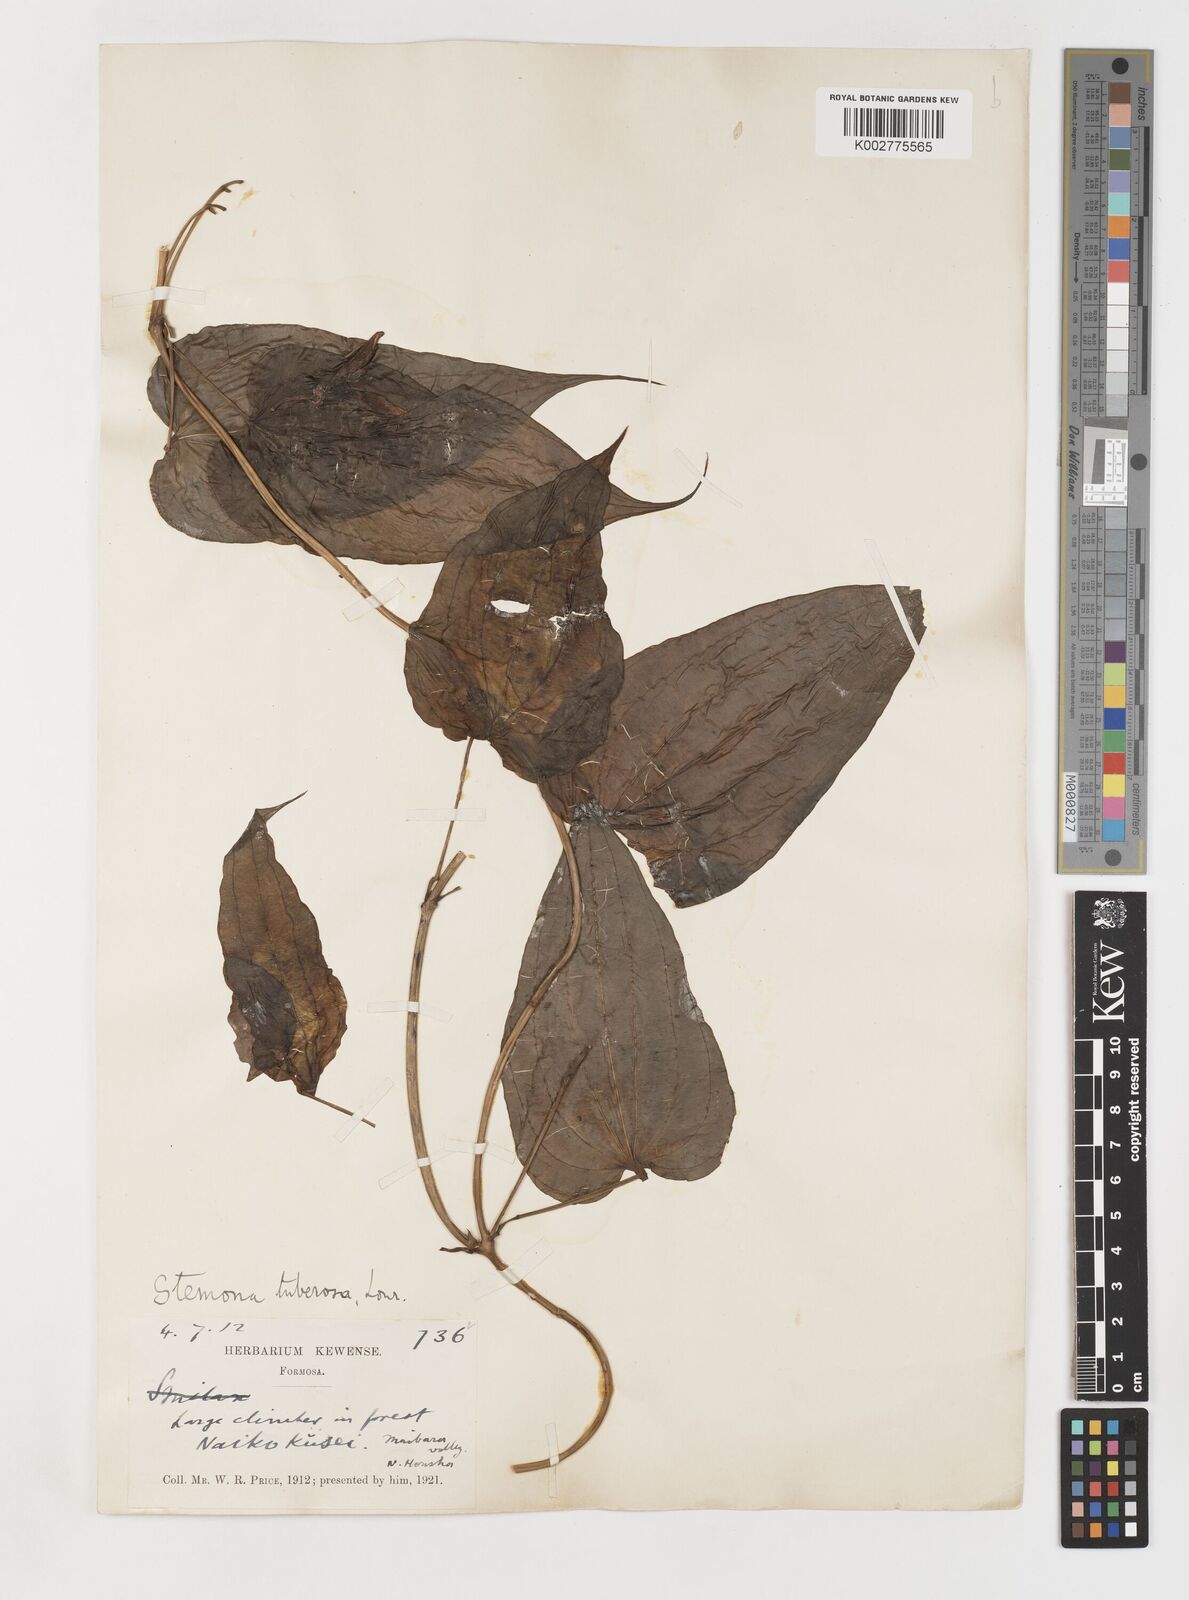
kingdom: Plantae
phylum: Tracheophyta
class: Liliopsida
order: Pandanales
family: Stemonaceae
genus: Stemona
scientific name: Stemona tuberosa
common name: Stemona
